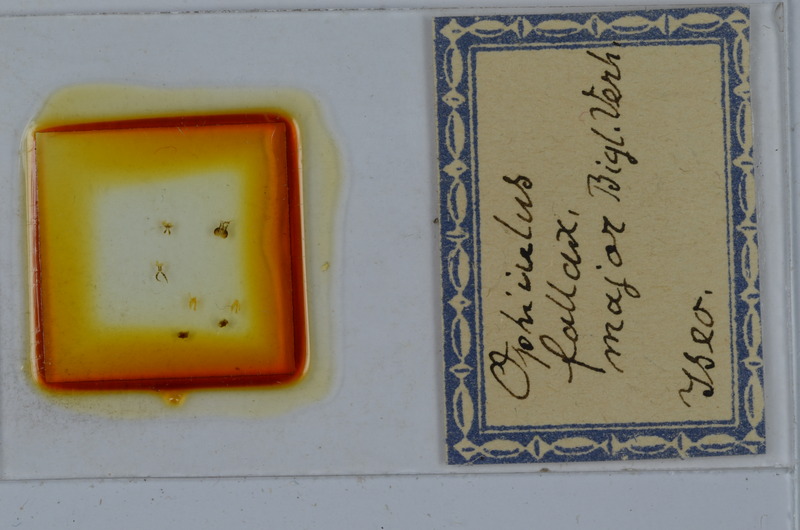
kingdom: Animalia
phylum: Arthropoda
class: Diplopoda
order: Julida
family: Julidae
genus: Ophyiulus
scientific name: Ophyiulus pilosus
